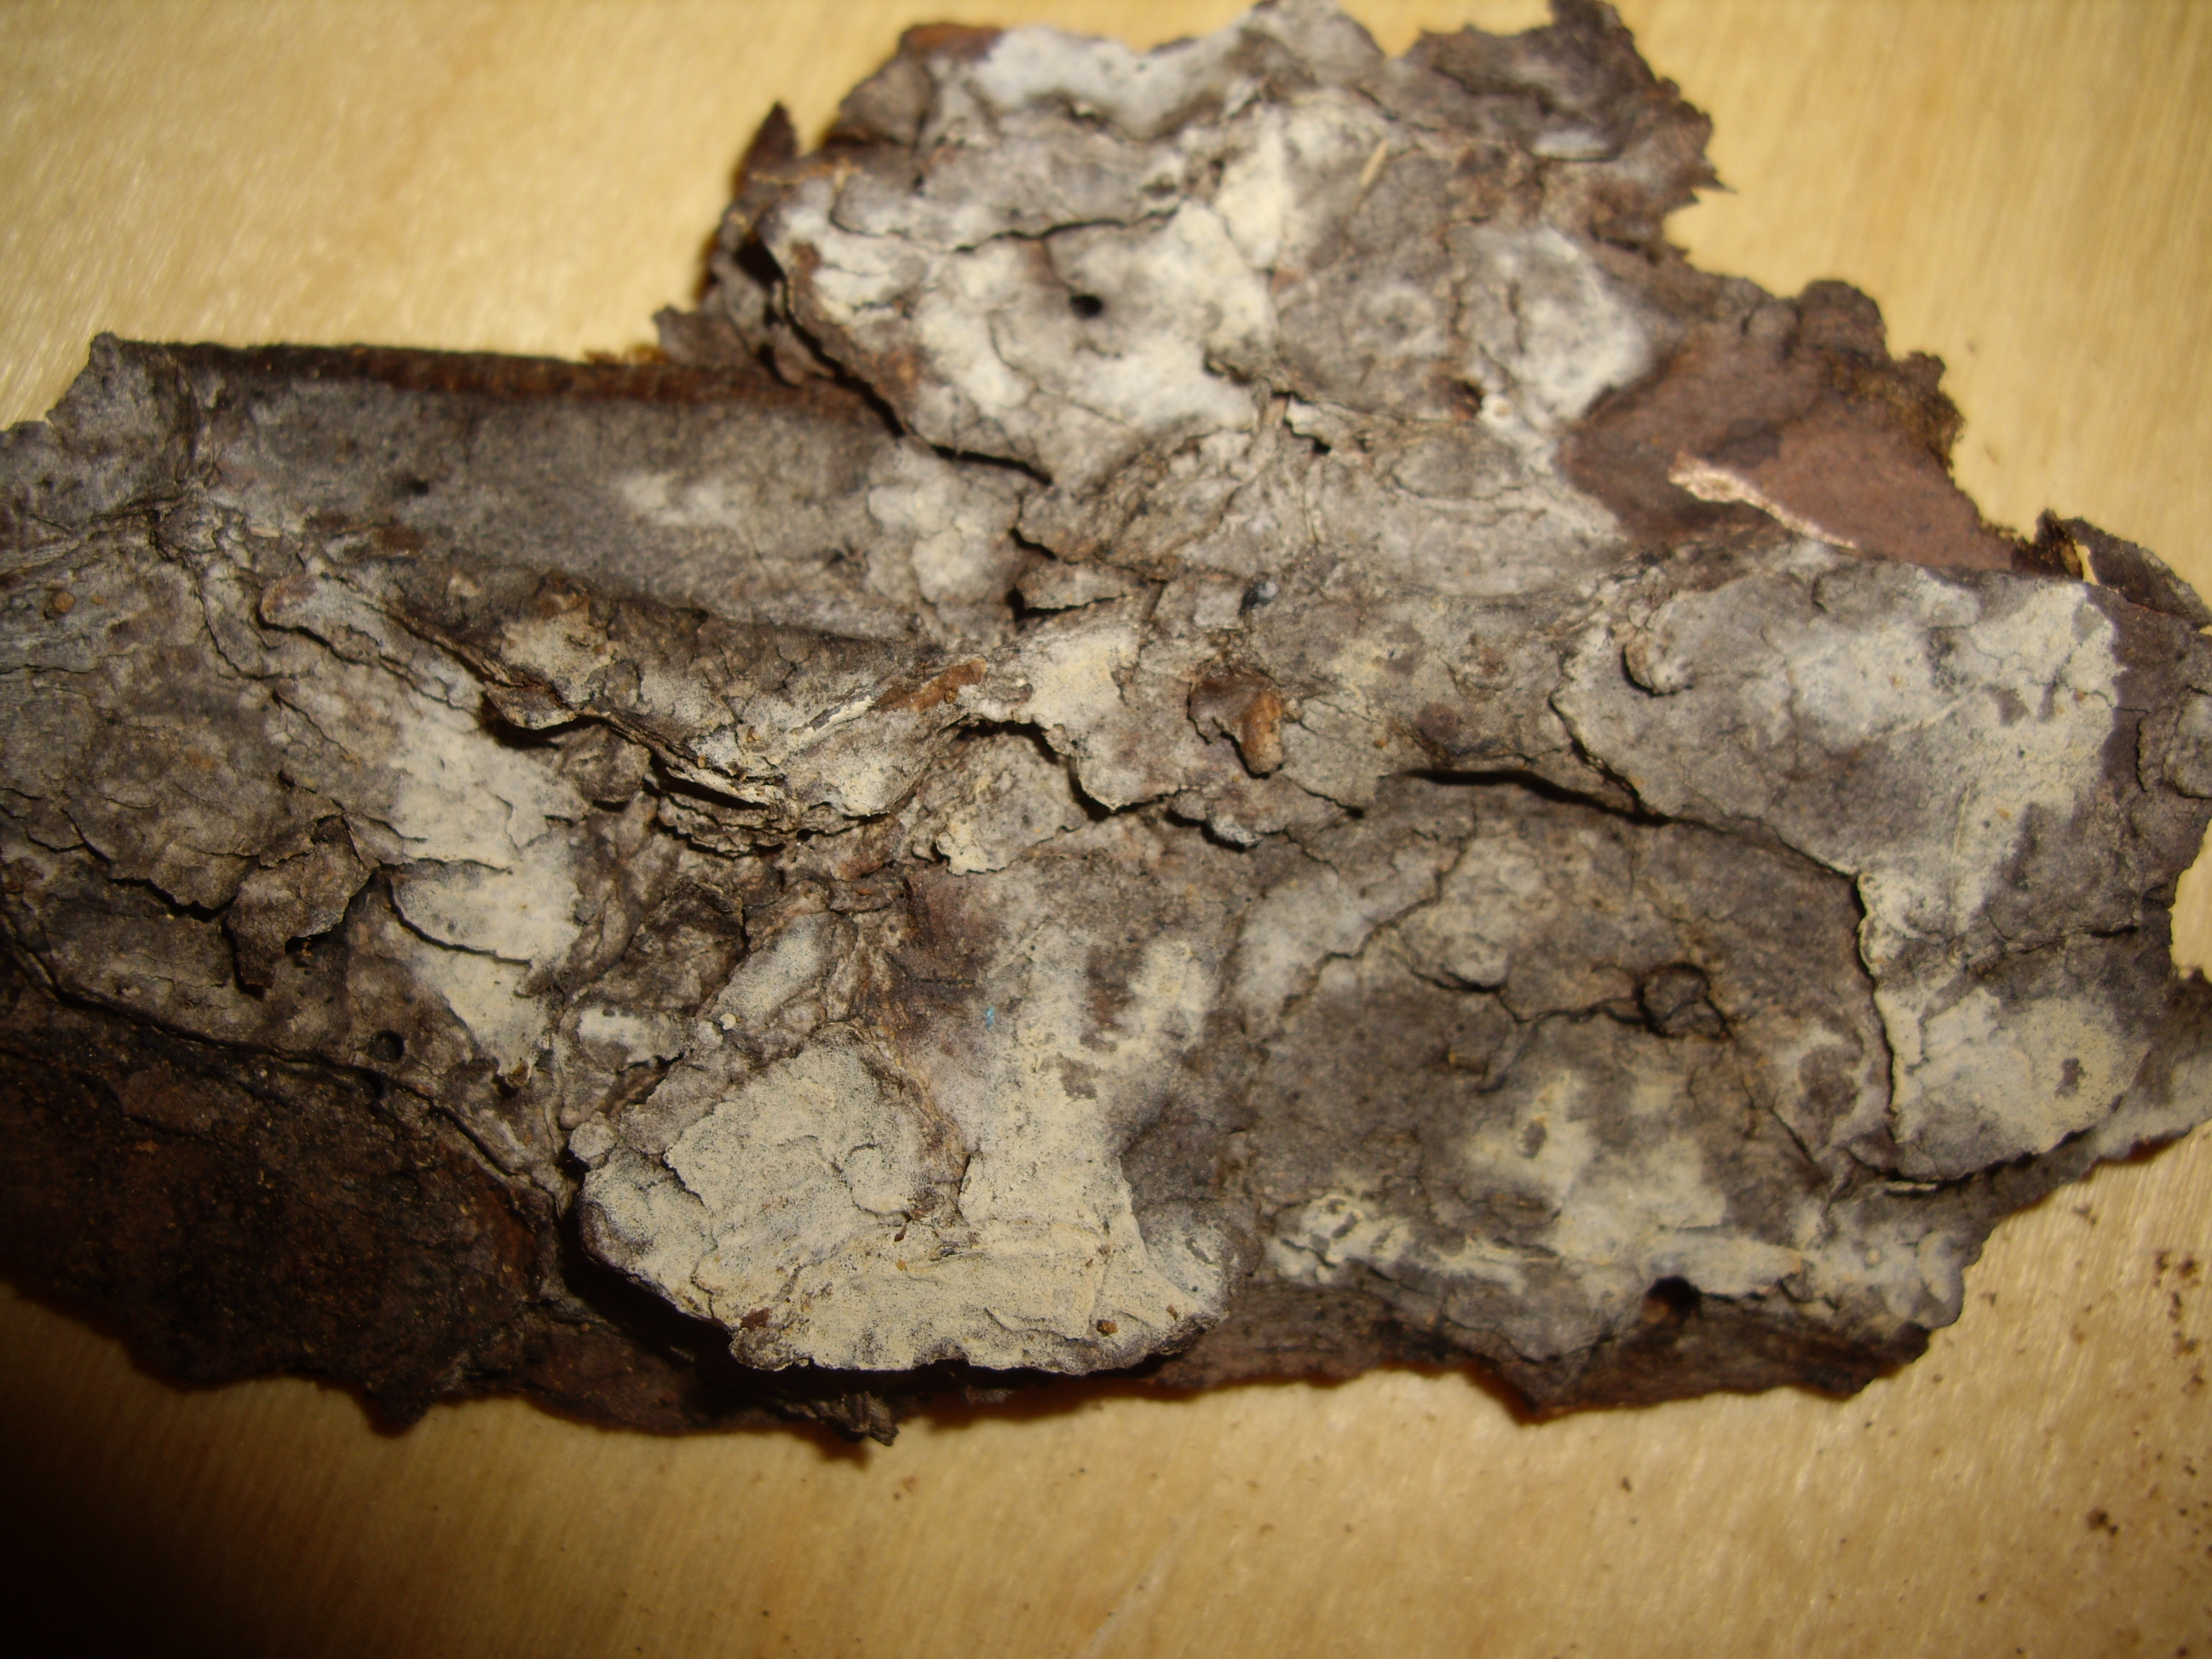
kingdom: Fungi
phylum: Basidiomycota
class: Agaricomycetes
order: Cantharellales
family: Hydnaceae
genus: Sistotrema
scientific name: Sistotrema octosporum
